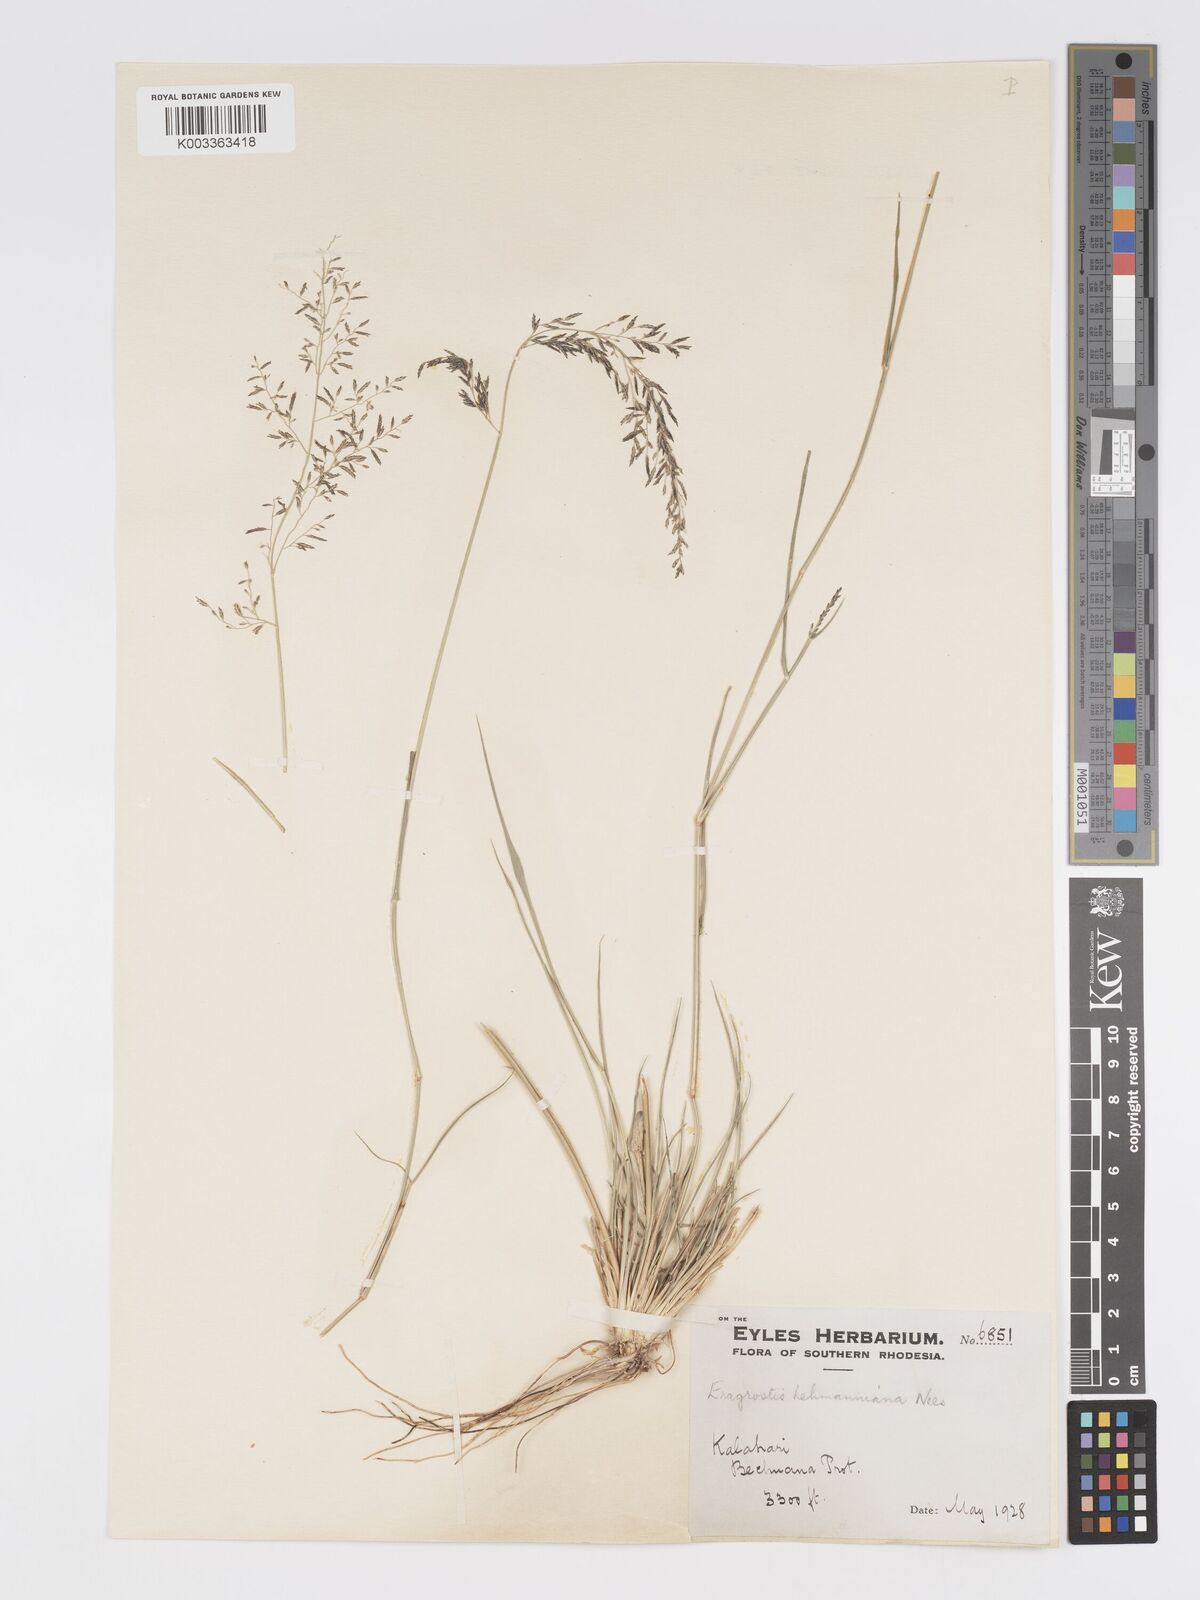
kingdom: Plantae
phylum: Tracheophyta
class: Liliopsida
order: Poales
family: Poaceae
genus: Eragrostis
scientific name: Eragrostis lehmanniana
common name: Lehmann lovegrass
